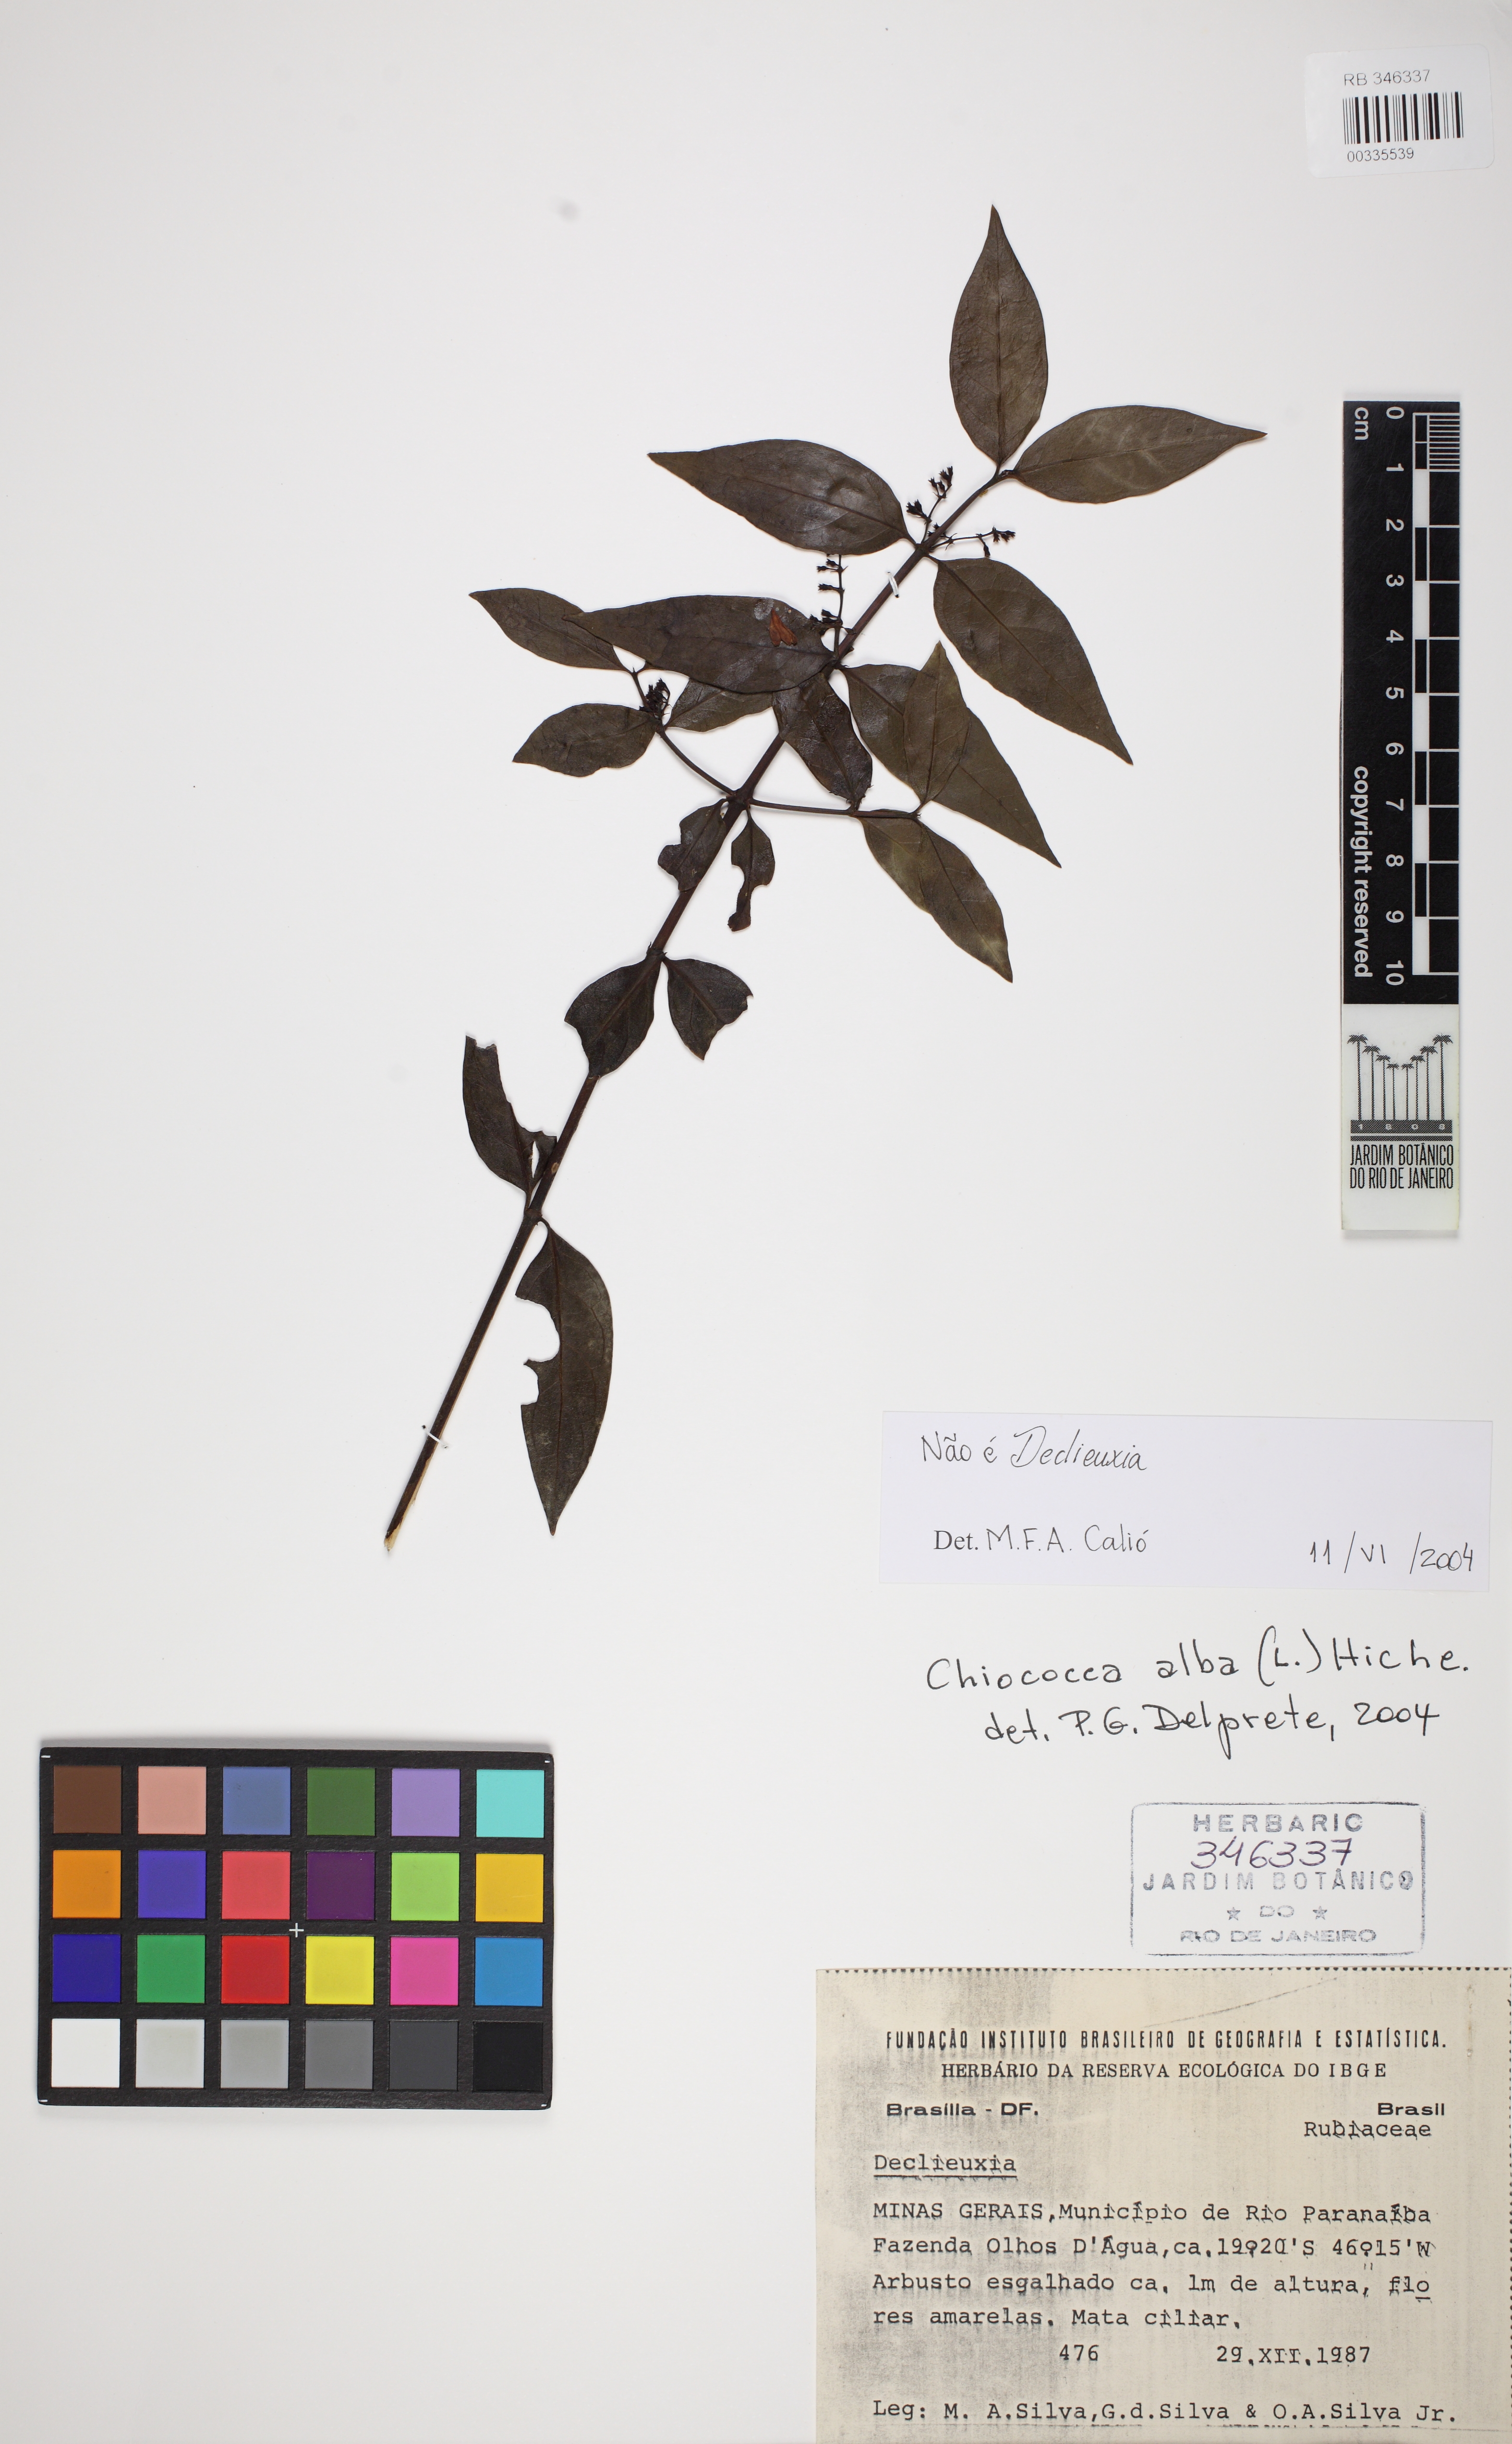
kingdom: Plantae
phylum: Tracheophyta
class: Magnoliopsida
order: Gentianales
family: Rubiaceae
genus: Chiococca
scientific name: Chiococca alba
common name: Snowberry
